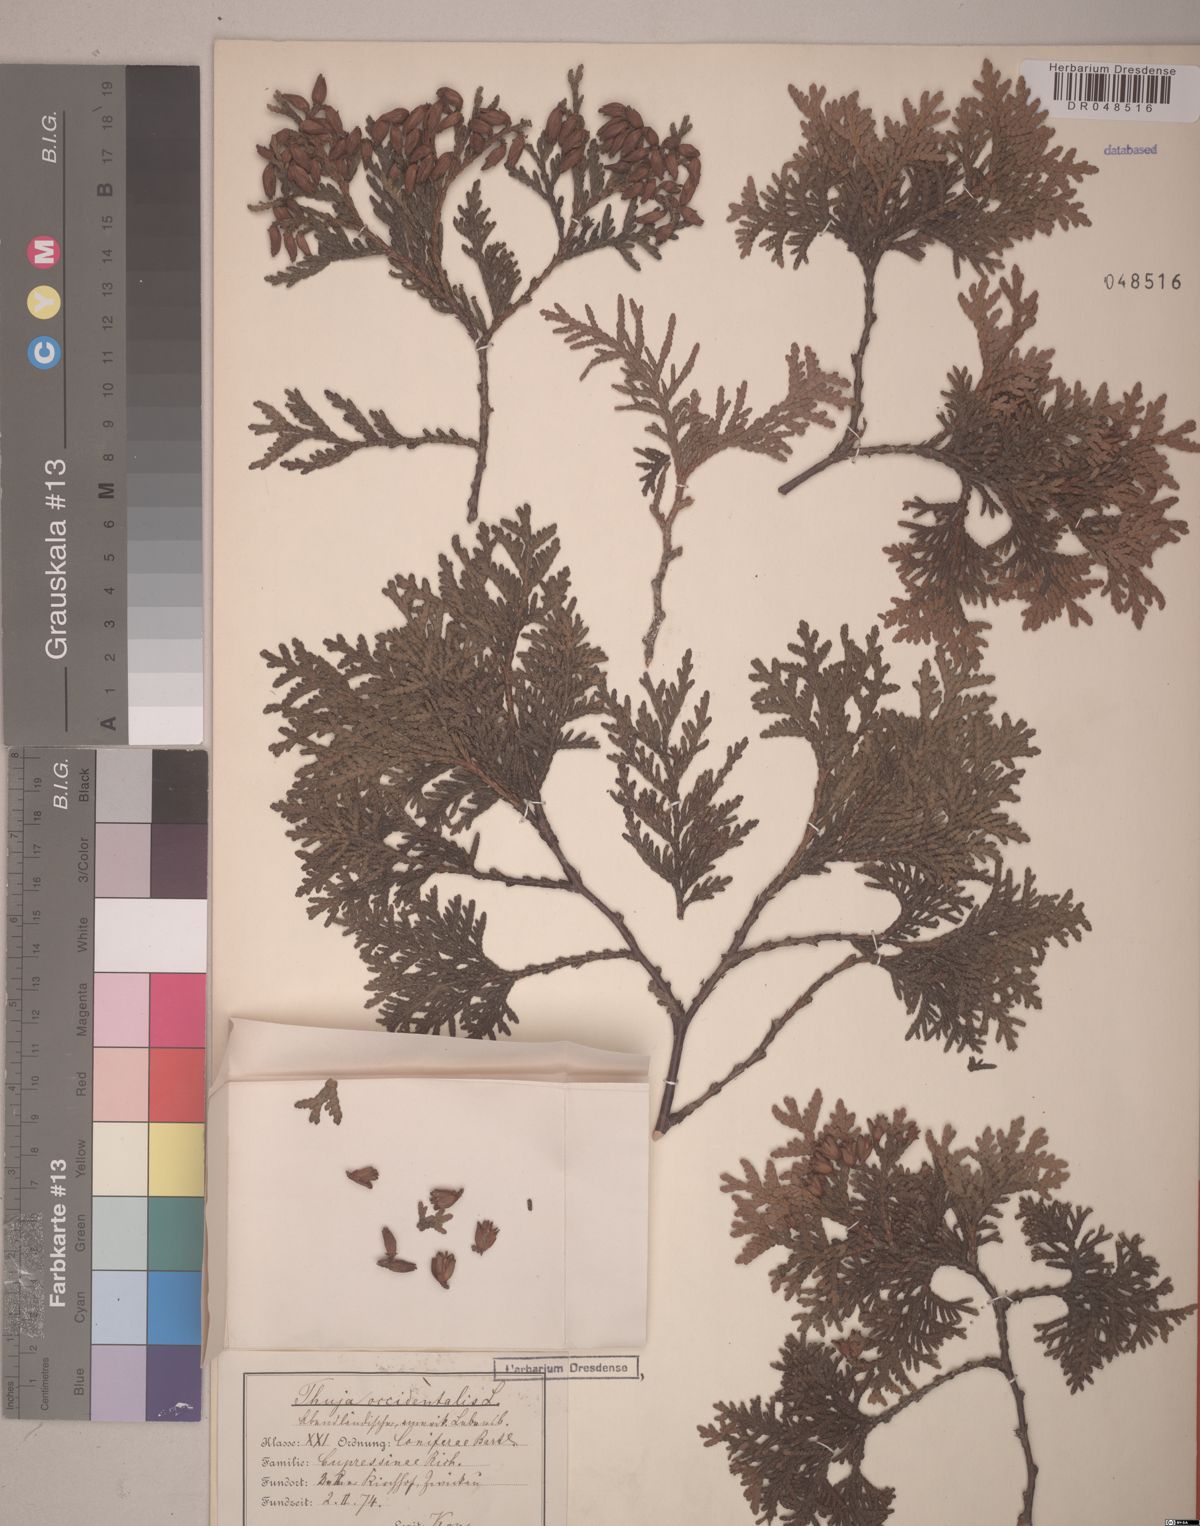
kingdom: Plantae
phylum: Tracheophyta
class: Pinopsida
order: Pinales
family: Cupressaceae
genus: Thuja
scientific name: Thuja occidentalis
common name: Northern white-cedar
